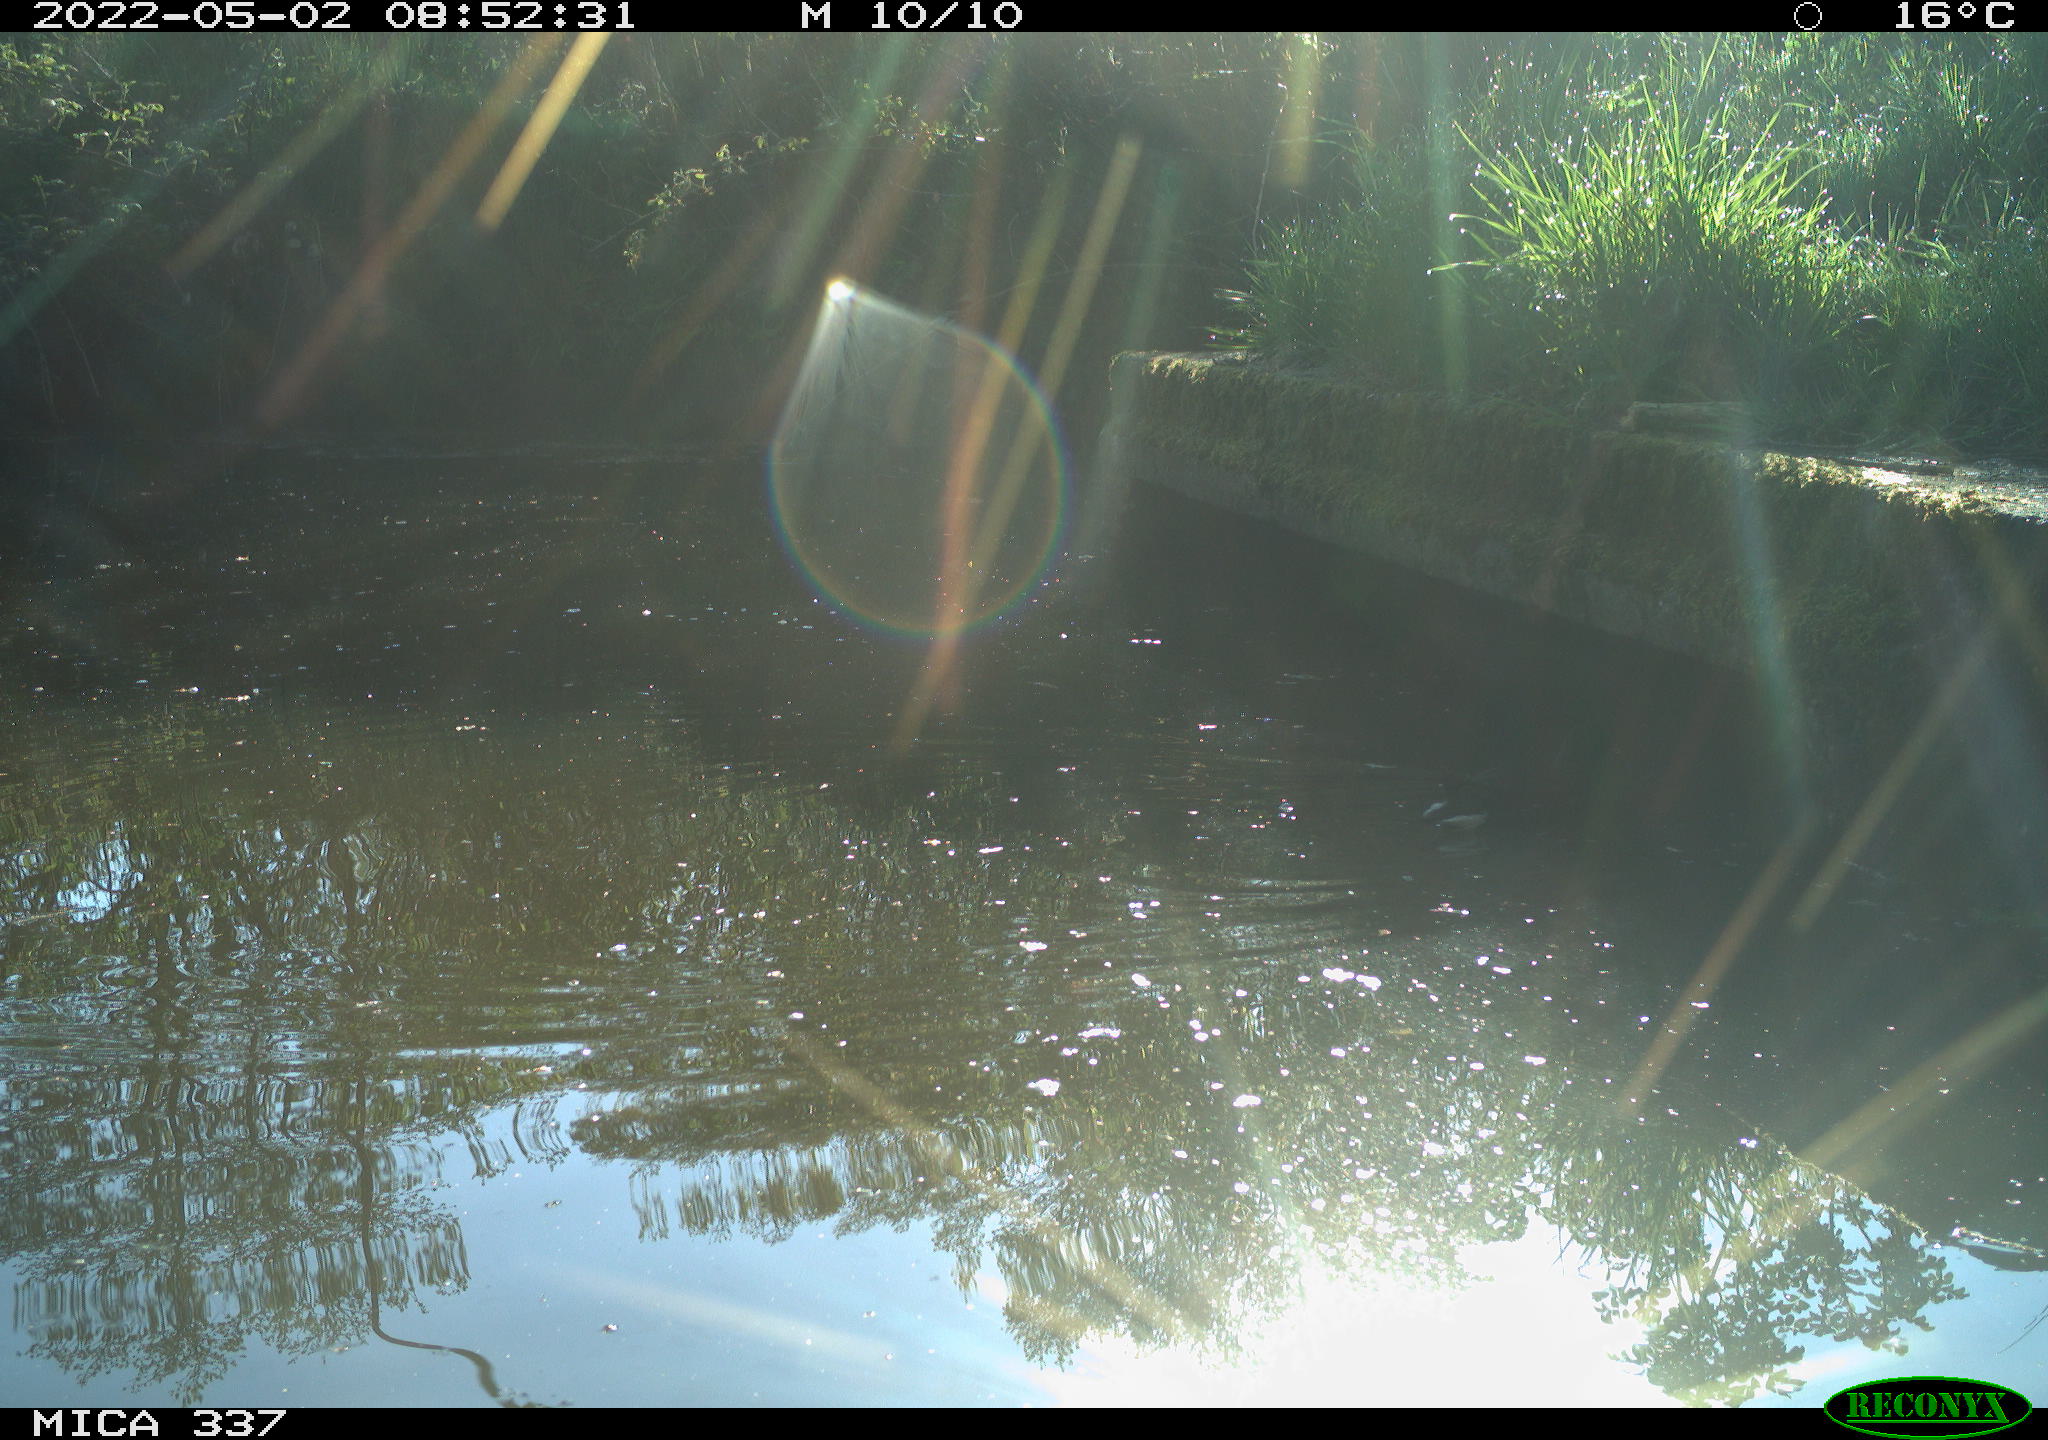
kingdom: Animalia
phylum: Chordata
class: Aves
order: Gruiformes
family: Rallidae
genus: Gallinula
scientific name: Gallinula chloropus
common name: Common moorhen
